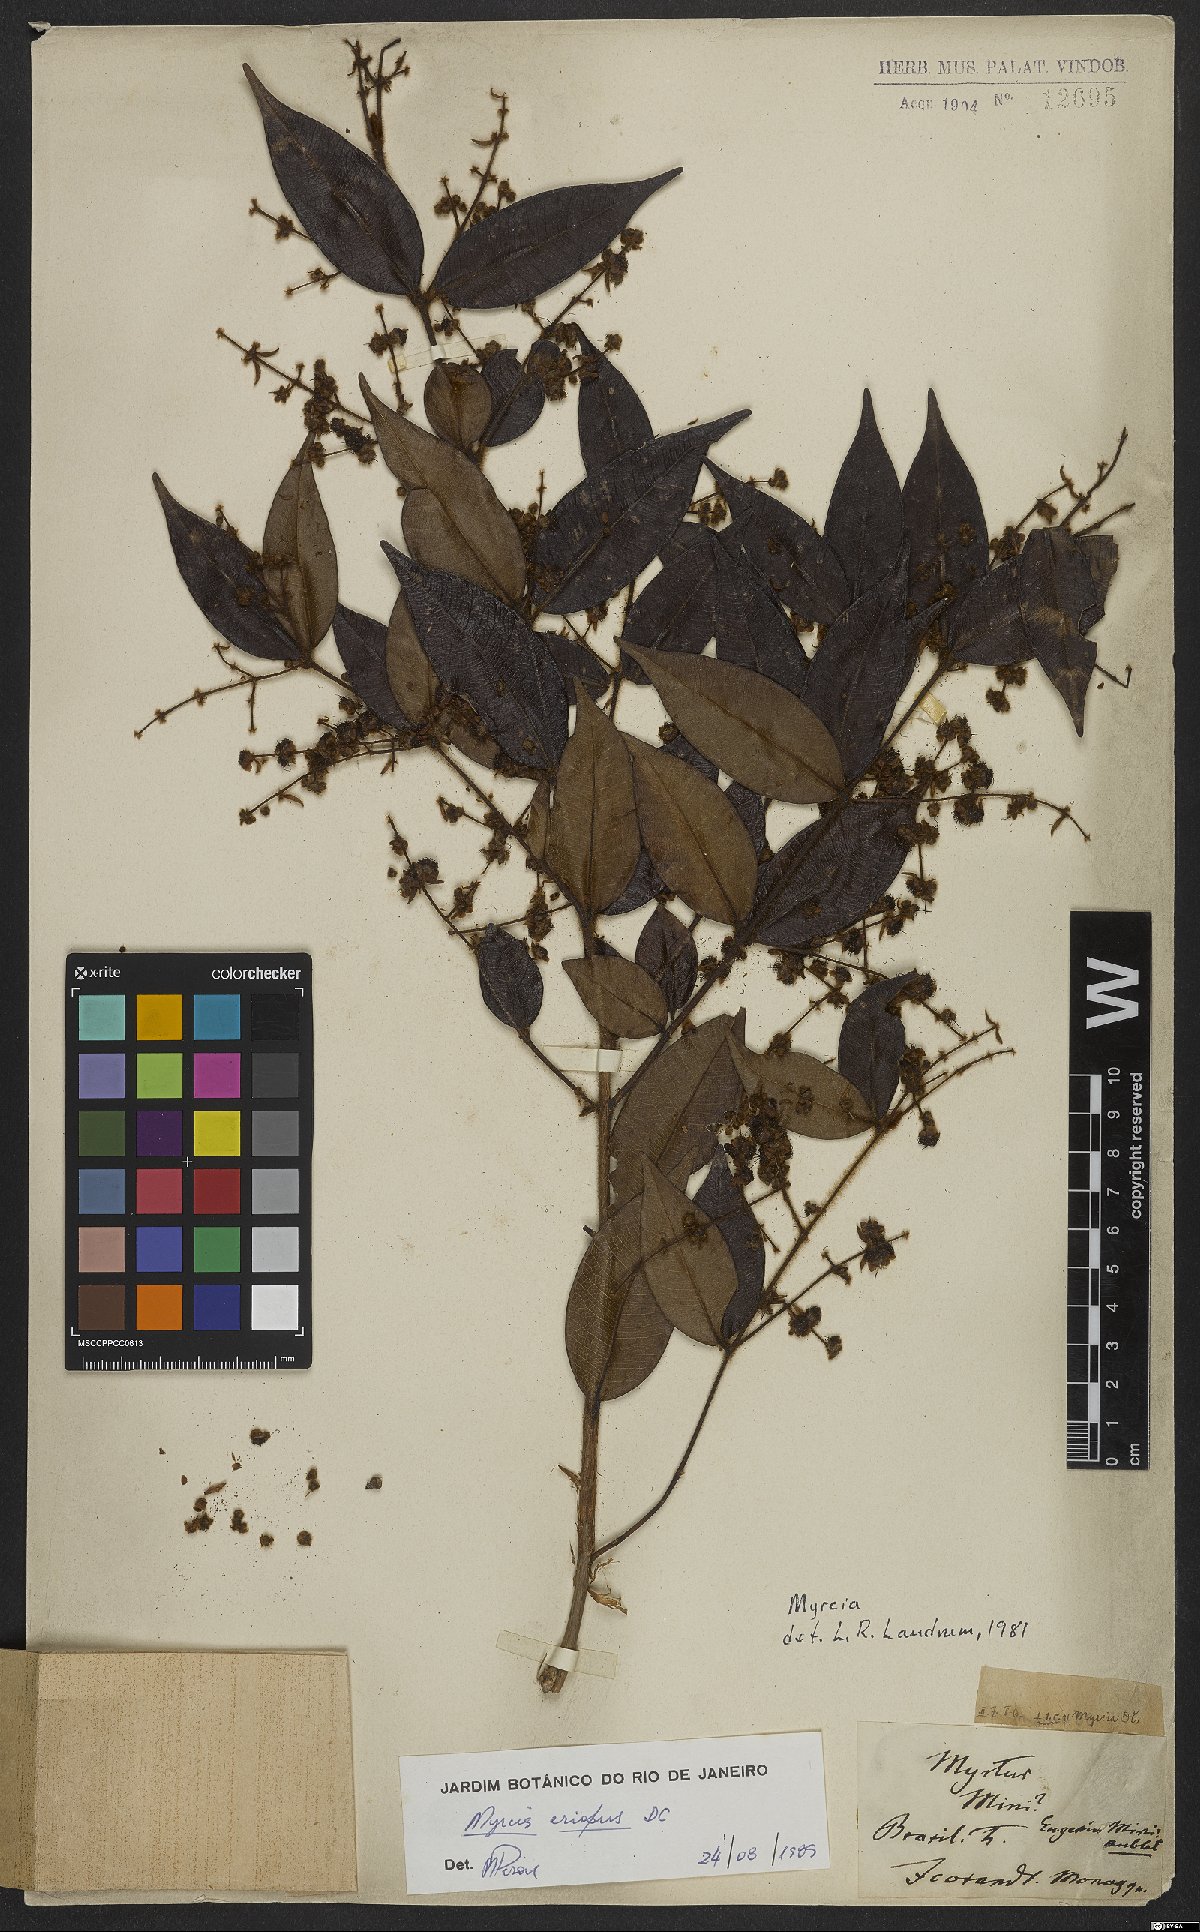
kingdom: Plantae
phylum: Tracheophyta
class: Magnoliopsida
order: Myrtales
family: Myrtaceae
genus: Myrcia
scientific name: Myrcia eriopus
